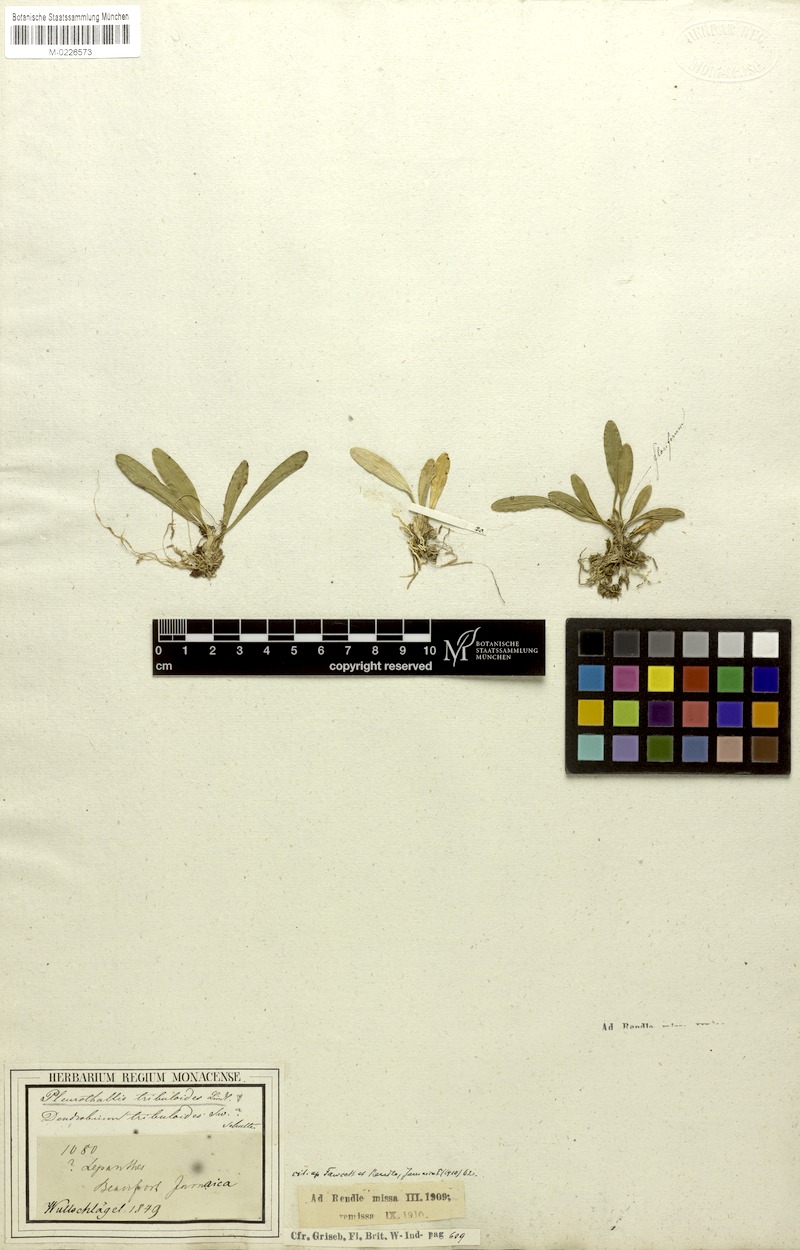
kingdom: Plantae
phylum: Tracheophyta
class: Liliopsida
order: Asparagales
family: Orchidaceae
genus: Specklinia
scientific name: Specklinia tribuloides
